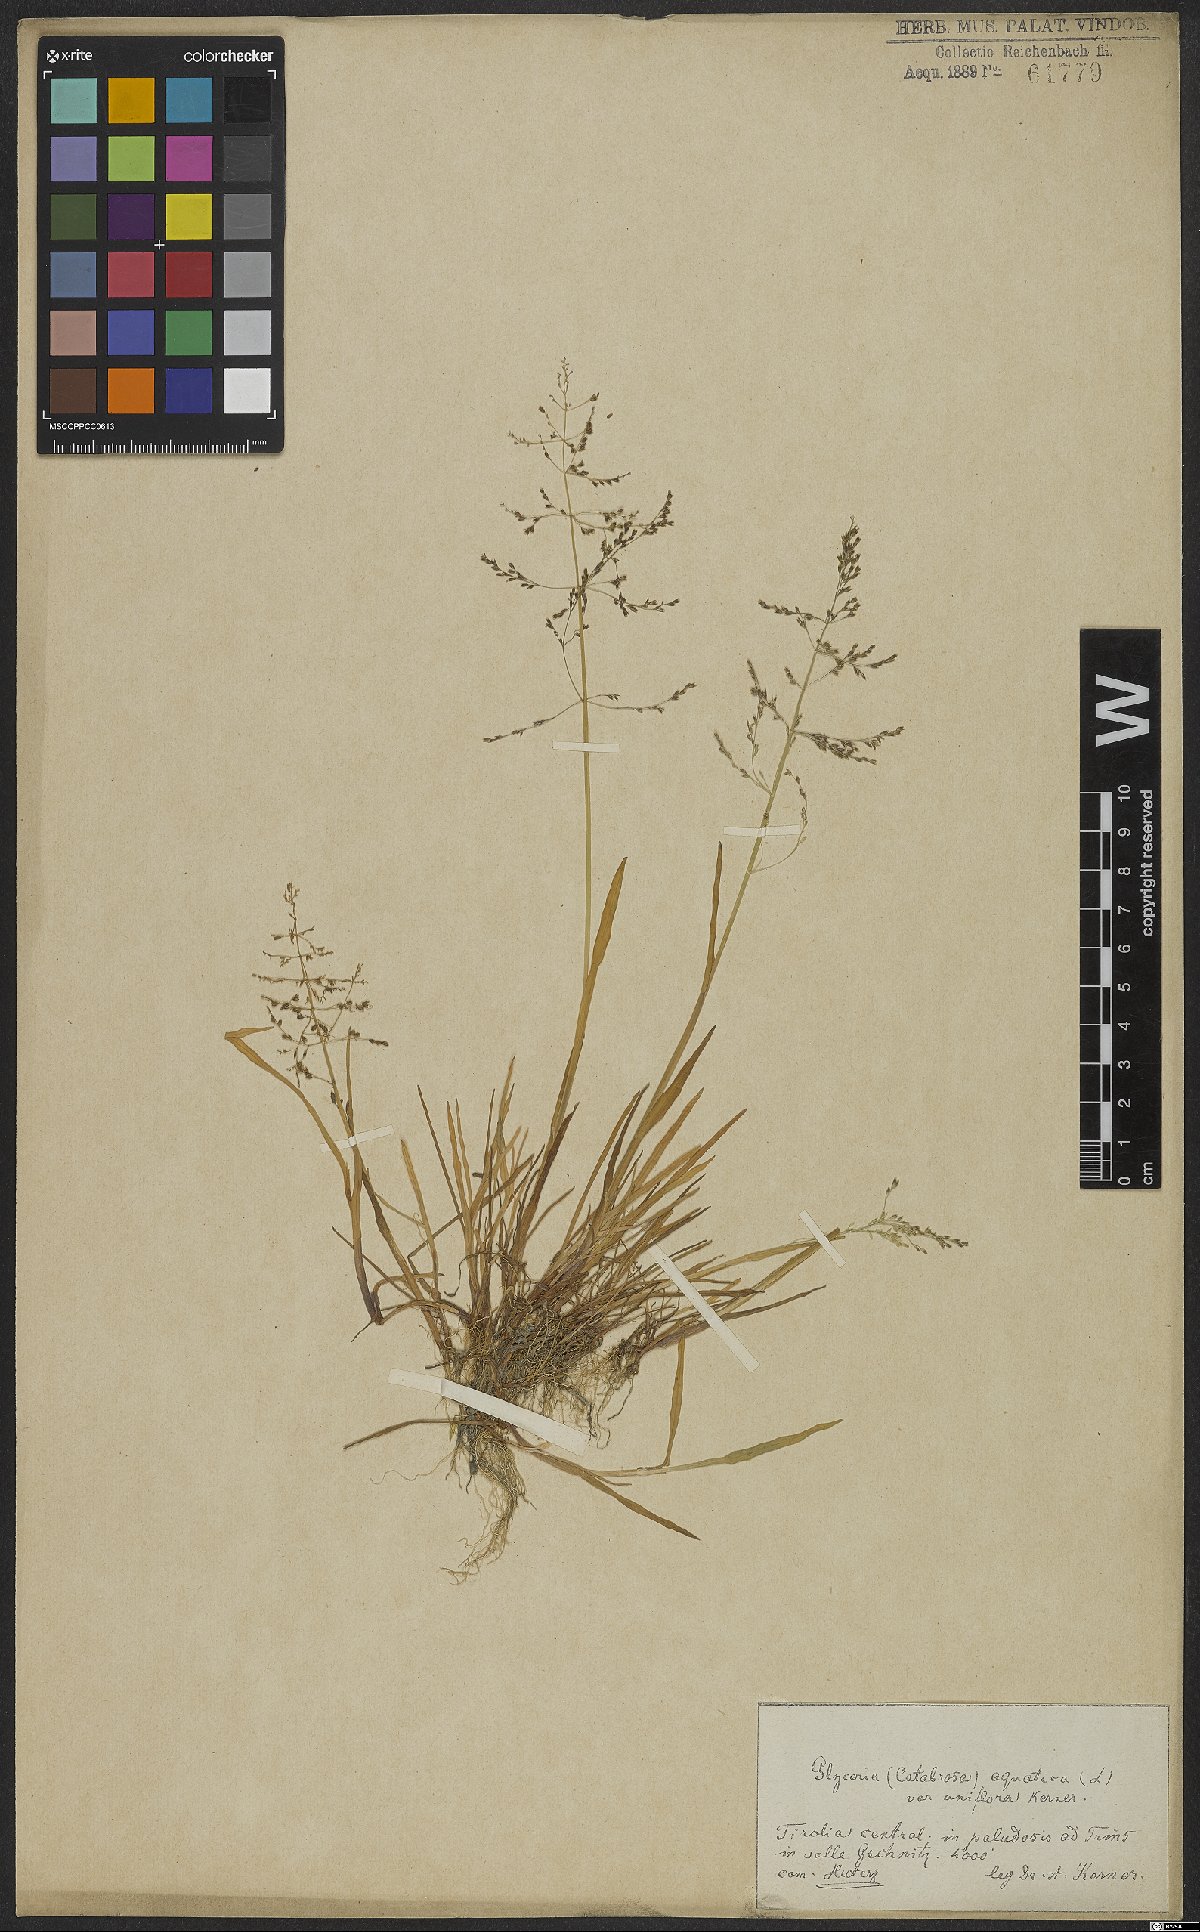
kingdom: Plantae
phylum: Tracheophyta
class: Liliopsida
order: Poales
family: Poaceae
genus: Catabrosa
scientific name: Catabrosa aquatica
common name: Whorl-grass
